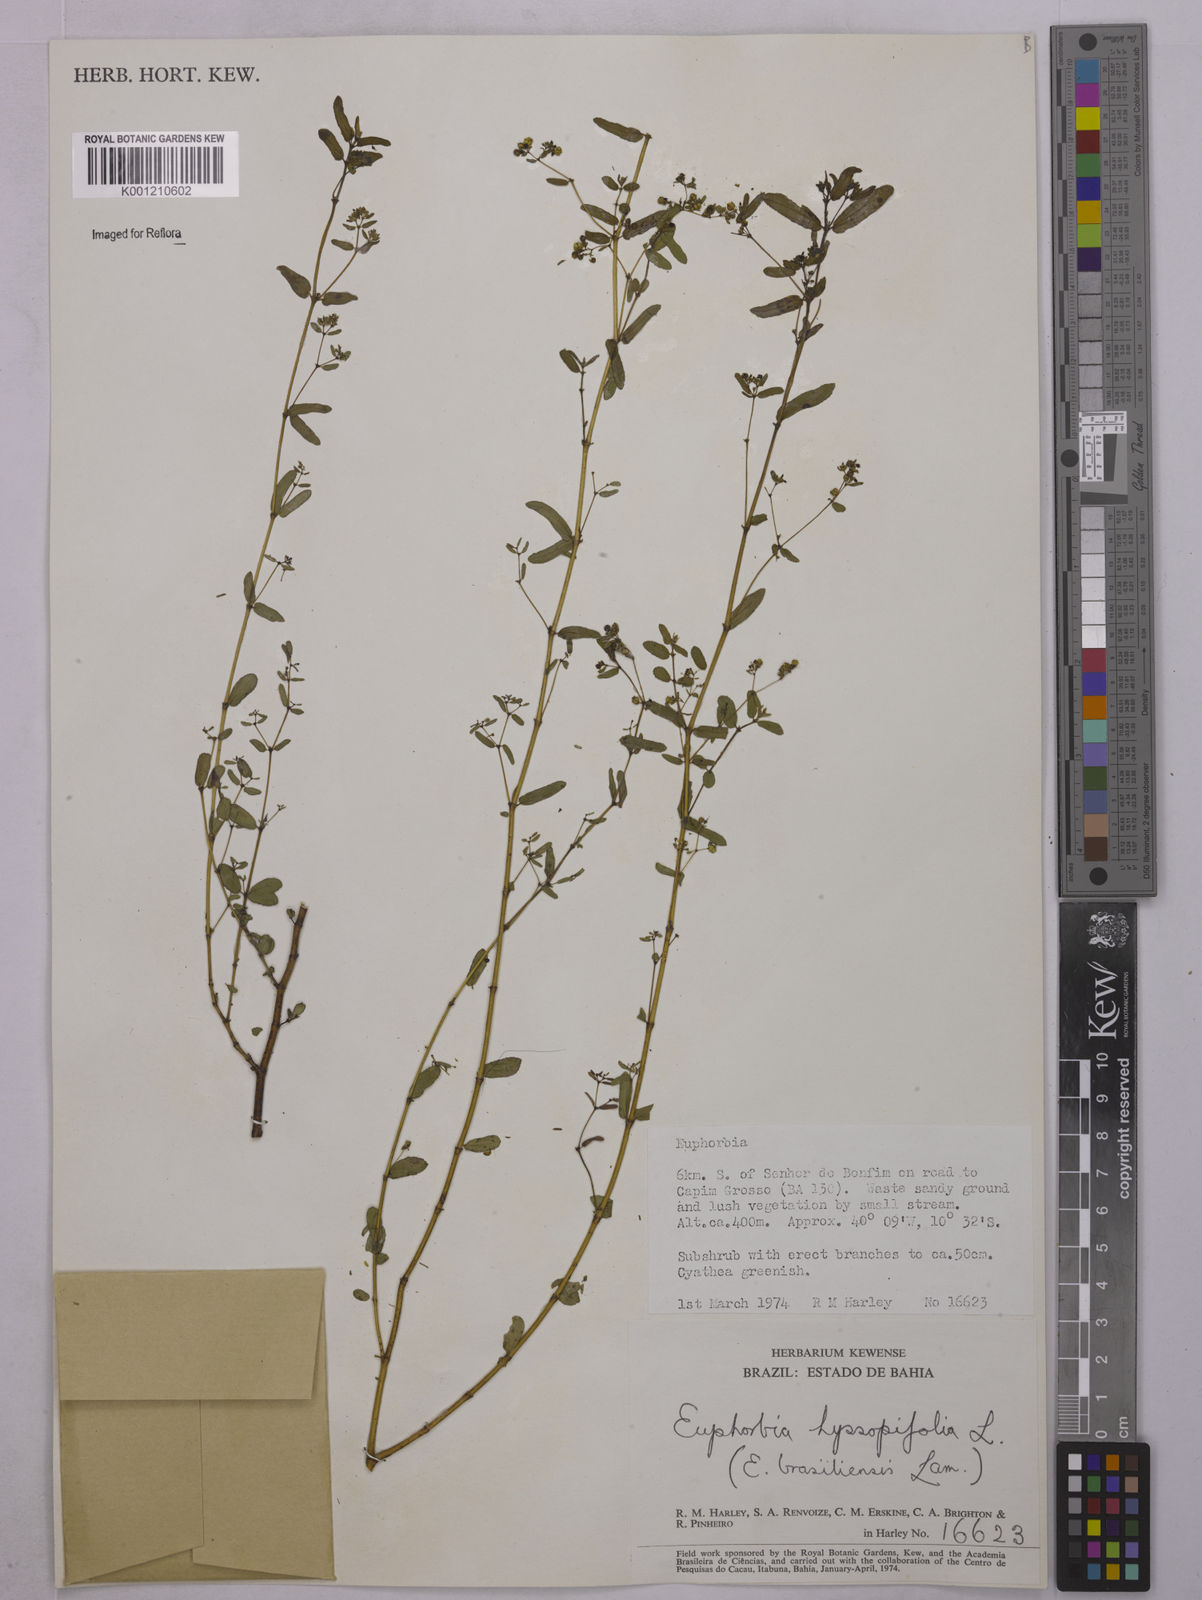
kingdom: Plantae
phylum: Tracheophyta
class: Magnoliopsida
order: Malpighiales
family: Euphorbiaceae
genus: Euphorbia
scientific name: Euphorbia hyssopifolia
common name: Hyssopleaf sandmat
